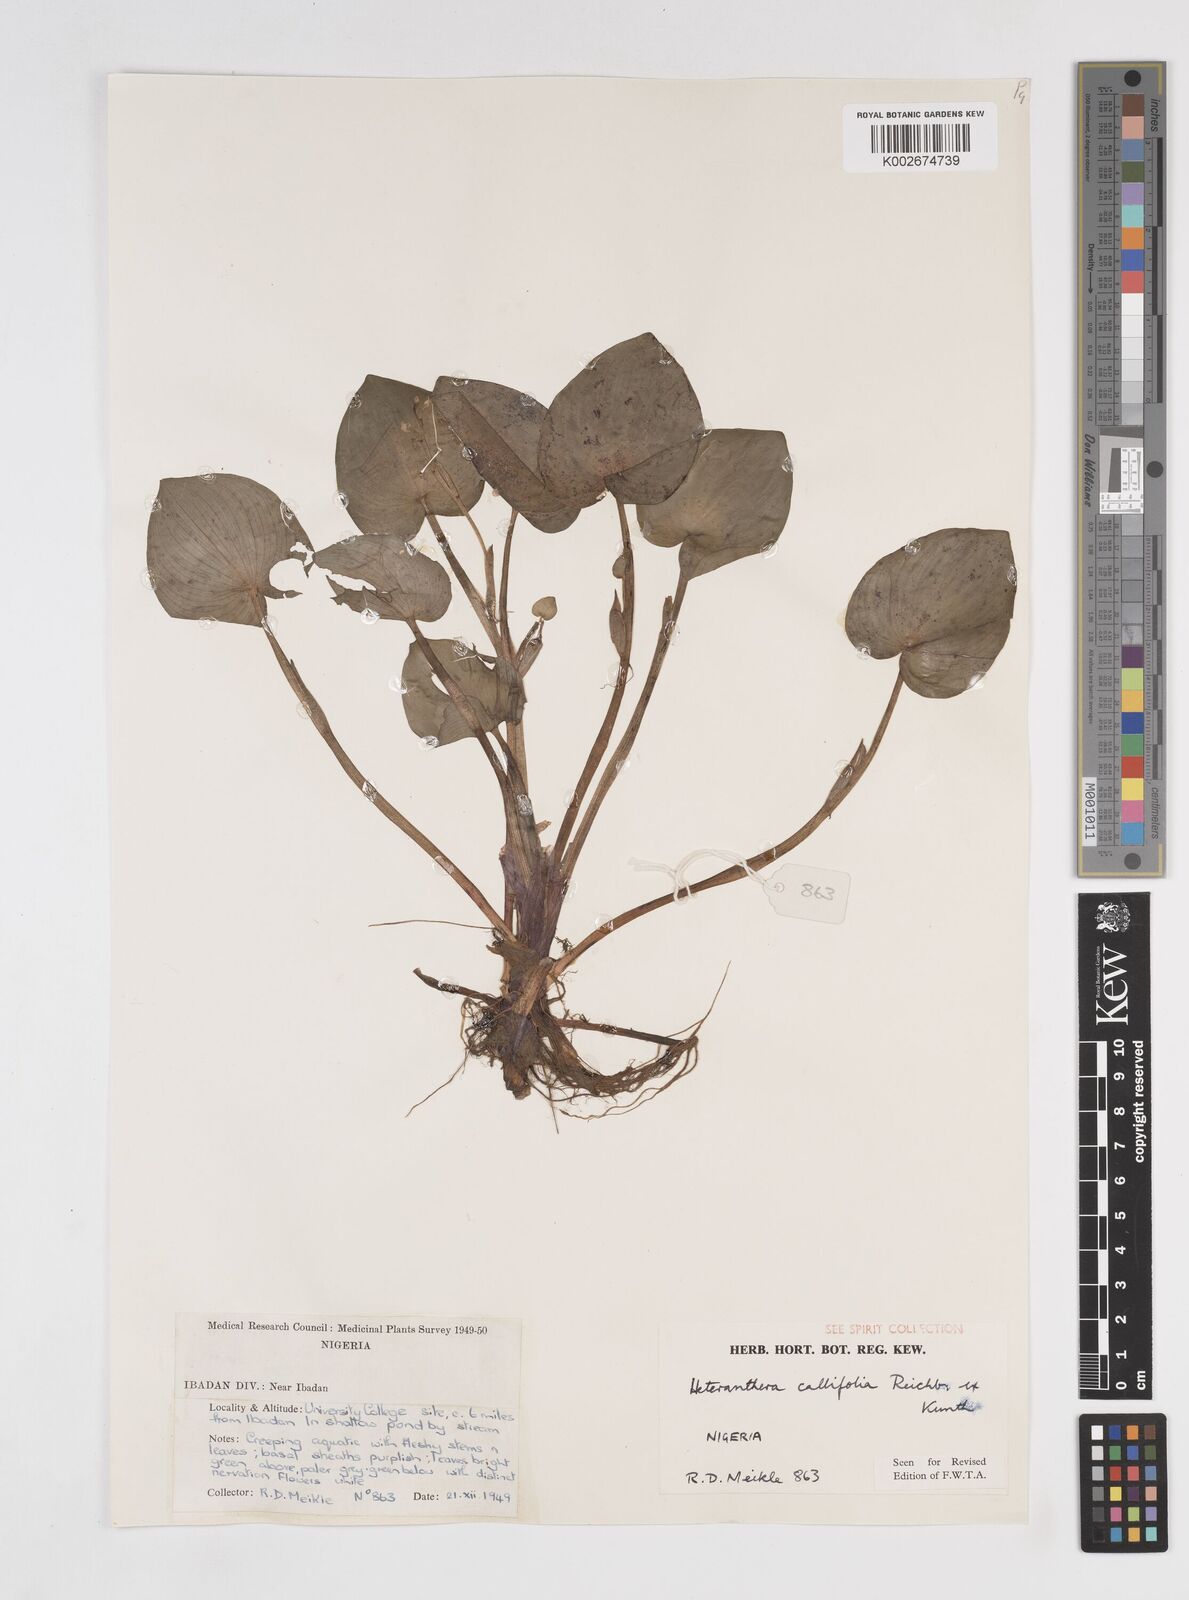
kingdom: Plantae
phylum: Tracheophyta
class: Liliopsida
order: Commelinales
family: Pontederiaceae
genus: Heteranthera
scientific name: Heteranthera callifolia
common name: Mud plantain
